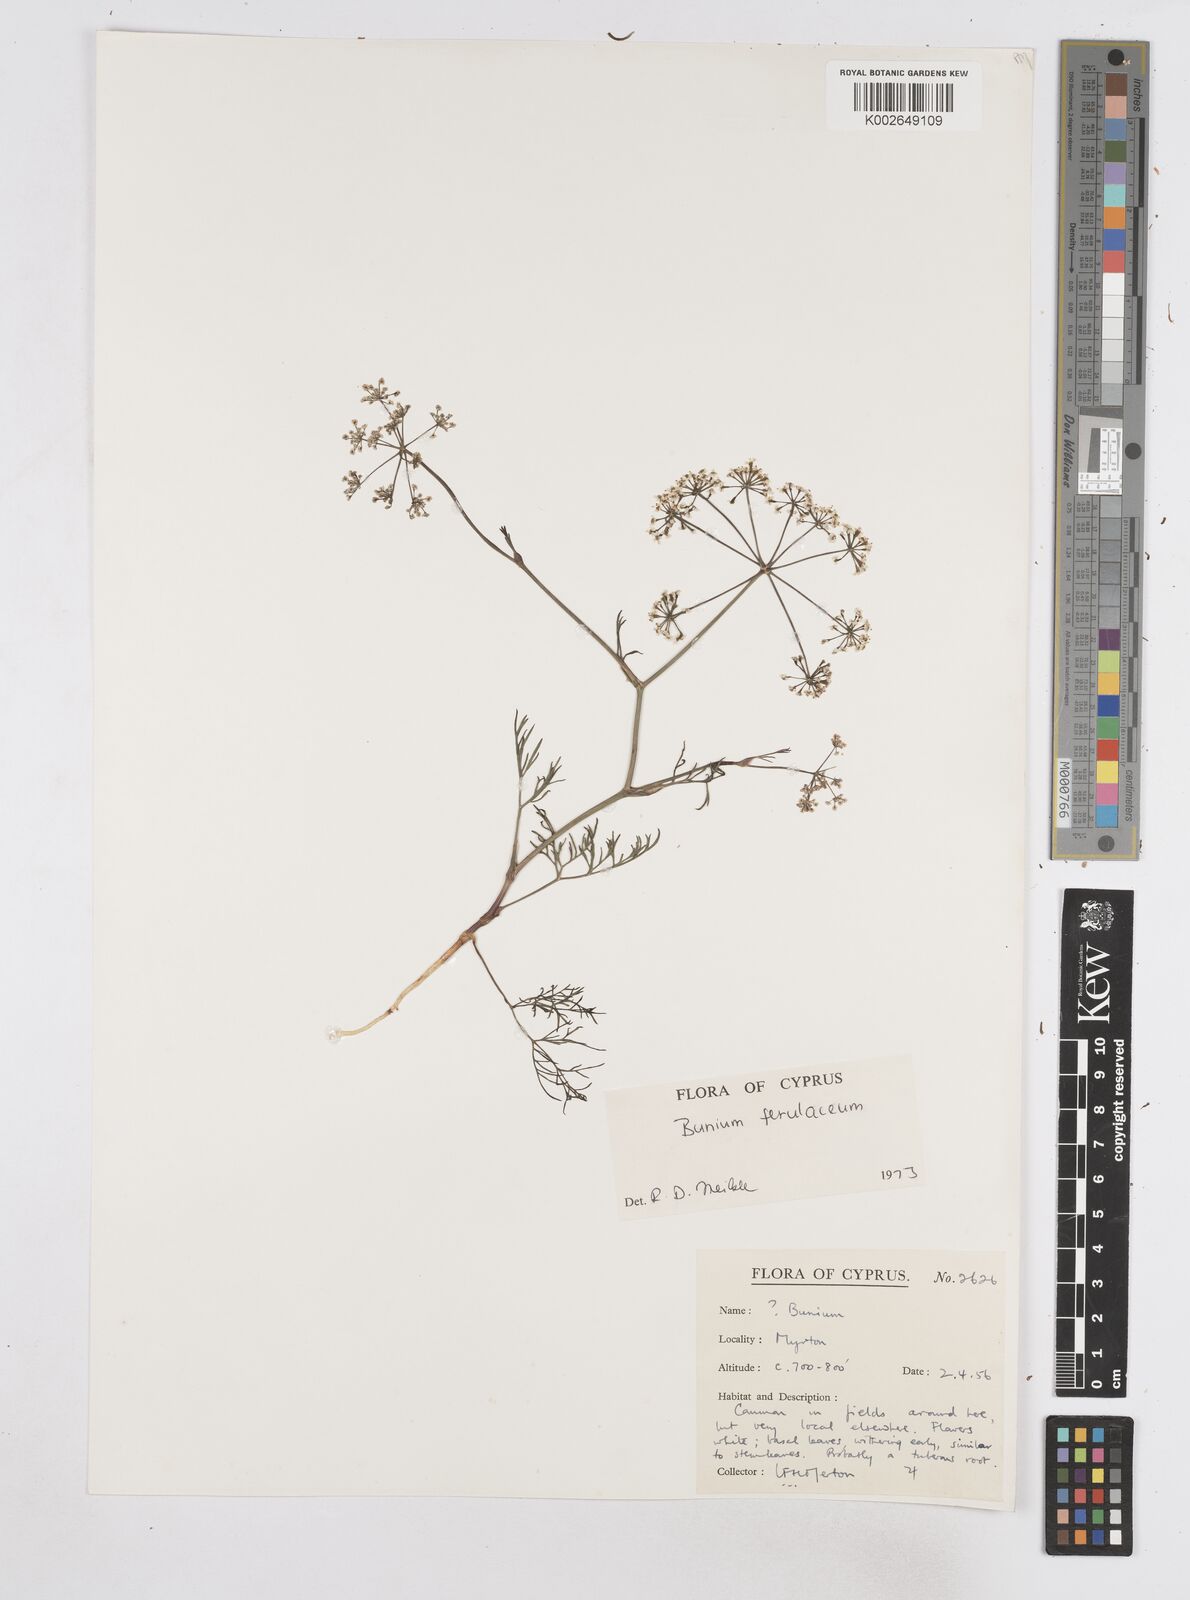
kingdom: Plantae
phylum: Tracheophyta
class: Magnoliopsida
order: Apiales
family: Apiaceae
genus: Bunium
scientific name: Bunium ferulaceum
